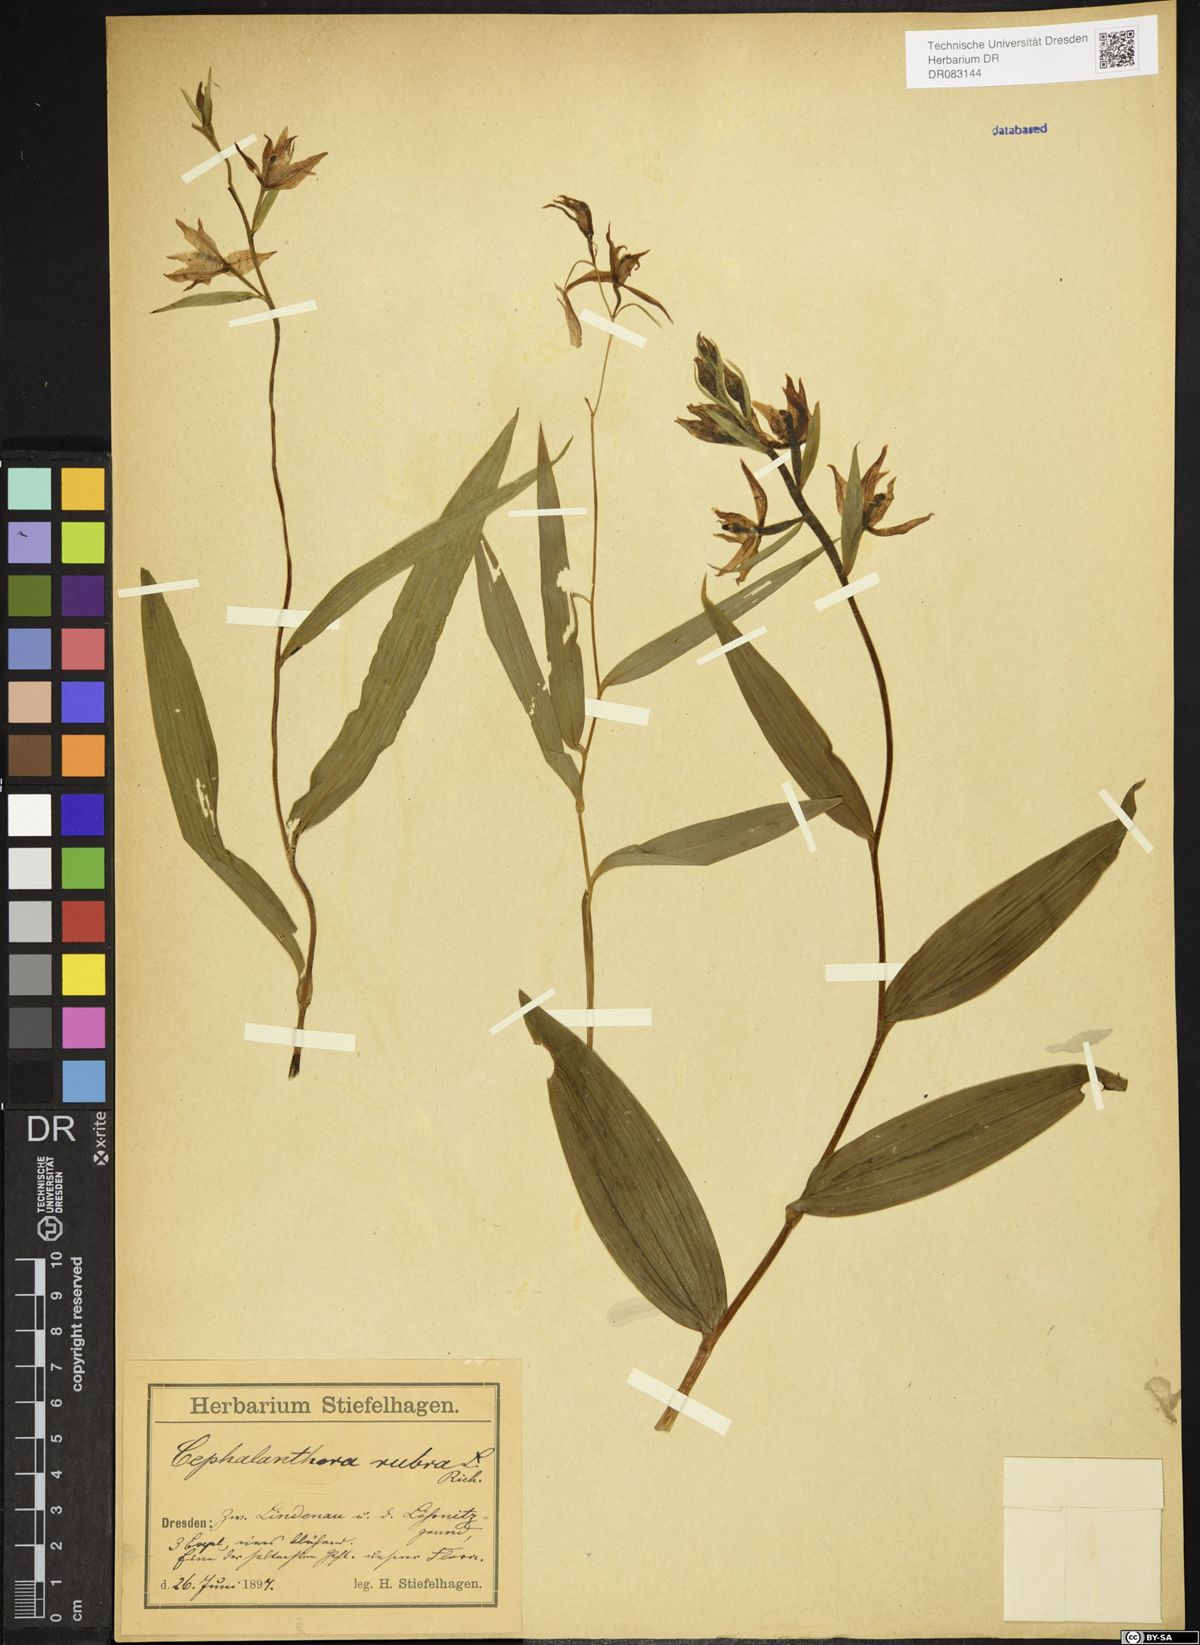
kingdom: Plantae
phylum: Tracheophyta
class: Liliopsida
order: Asparagales
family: Orchidaceae
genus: Cephalanthera
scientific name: Cephalanthera rubra
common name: Red helleborine
